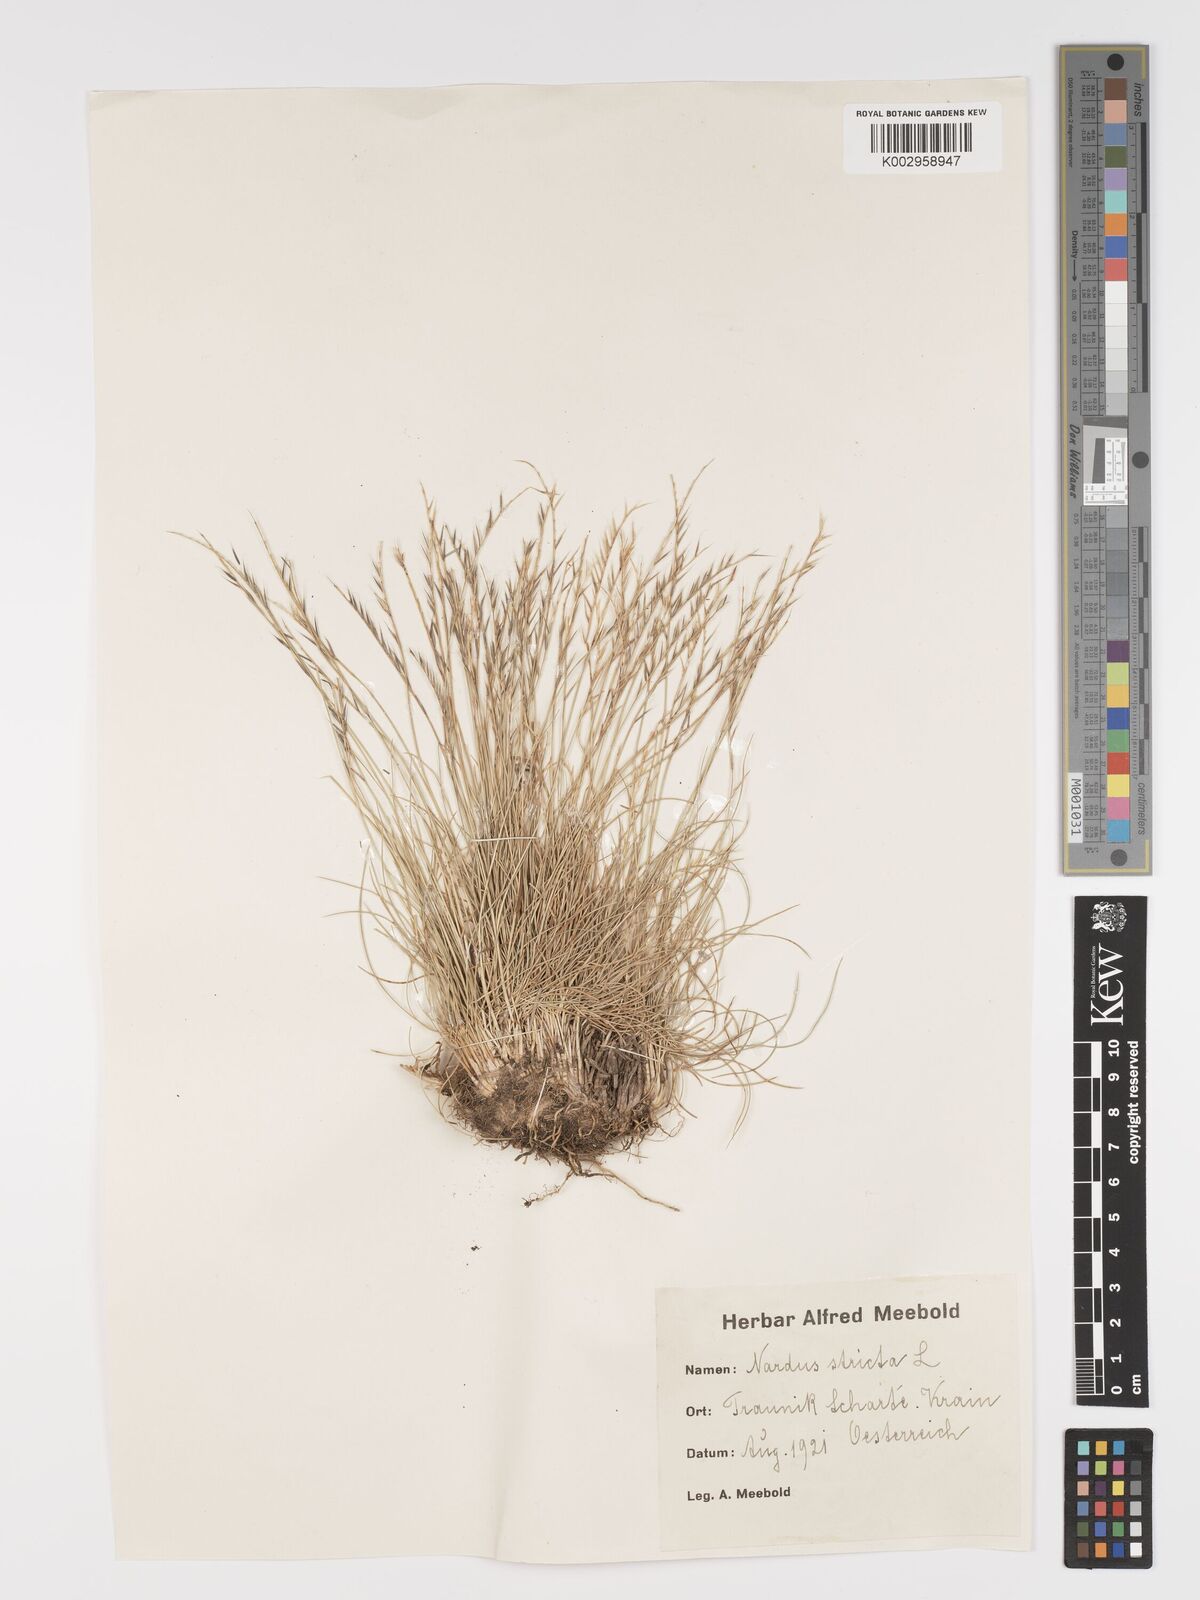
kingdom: Plantae
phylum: Tracheophyta
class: Liliopsida
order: Poales
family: Poaceae
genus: Nardus
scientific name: Nardus stricta
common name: Mat-grass
